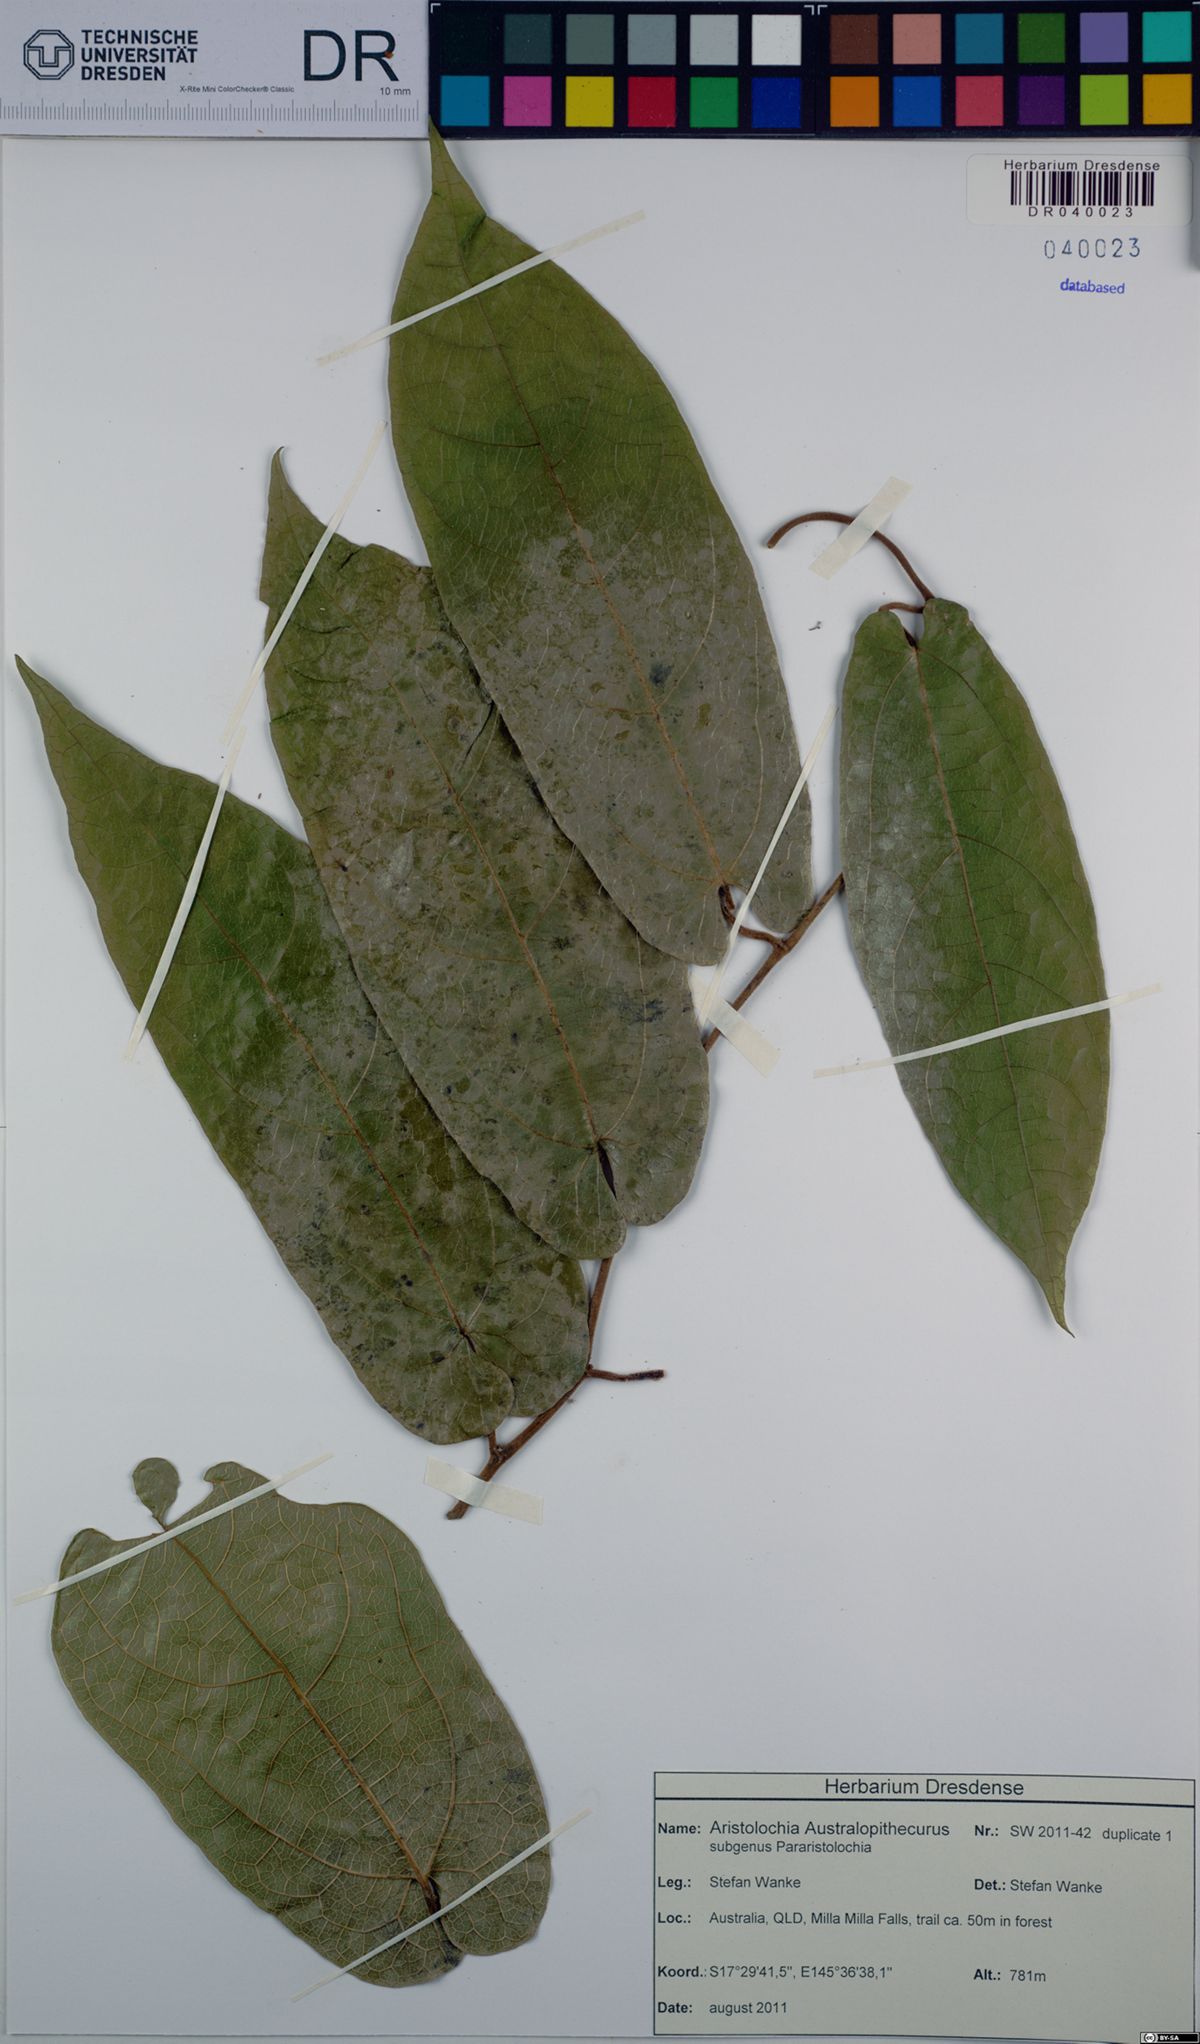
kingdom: Plantae
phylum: Tracheophyta
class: Magnoliopsida
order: Piperales
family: Aristolochiaceae
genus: Aristolochia
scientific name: Aristolochia australopithecurus
